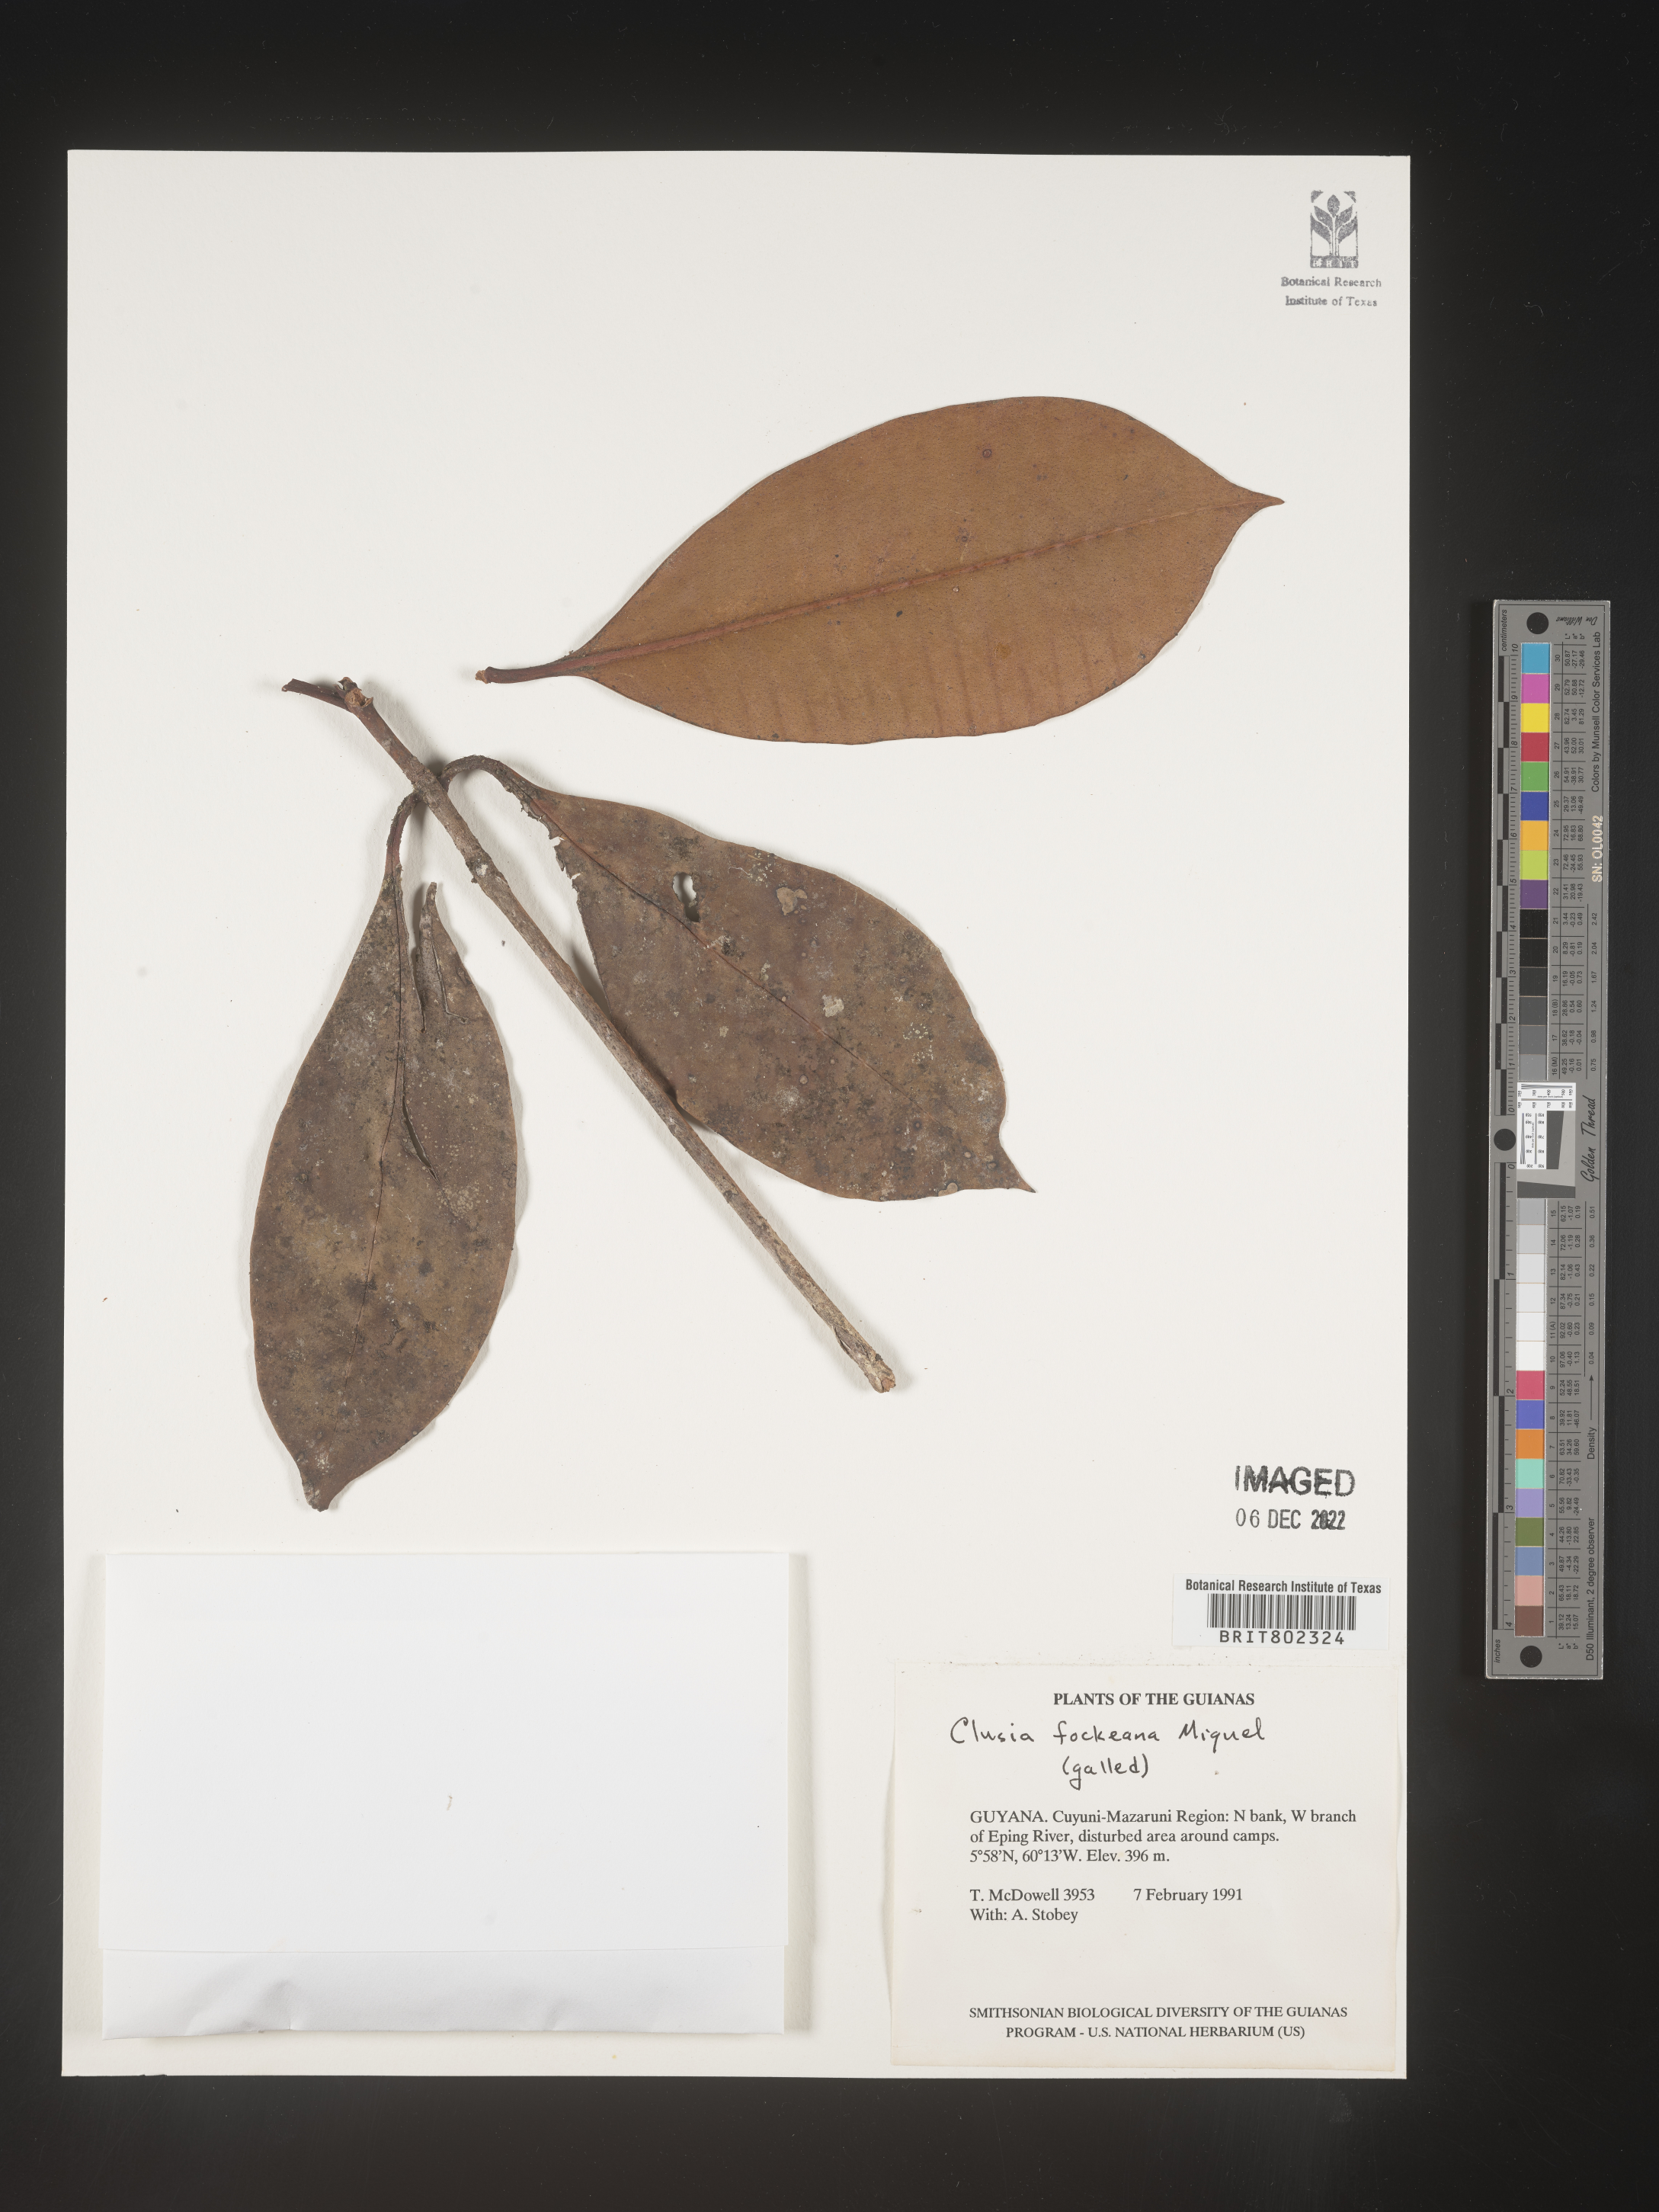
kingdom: Plantae
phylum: Tracheophyta
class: Magnoliopsida
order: Malpighiales
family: Clusiaceae
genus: Clusia
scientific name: Clusia
